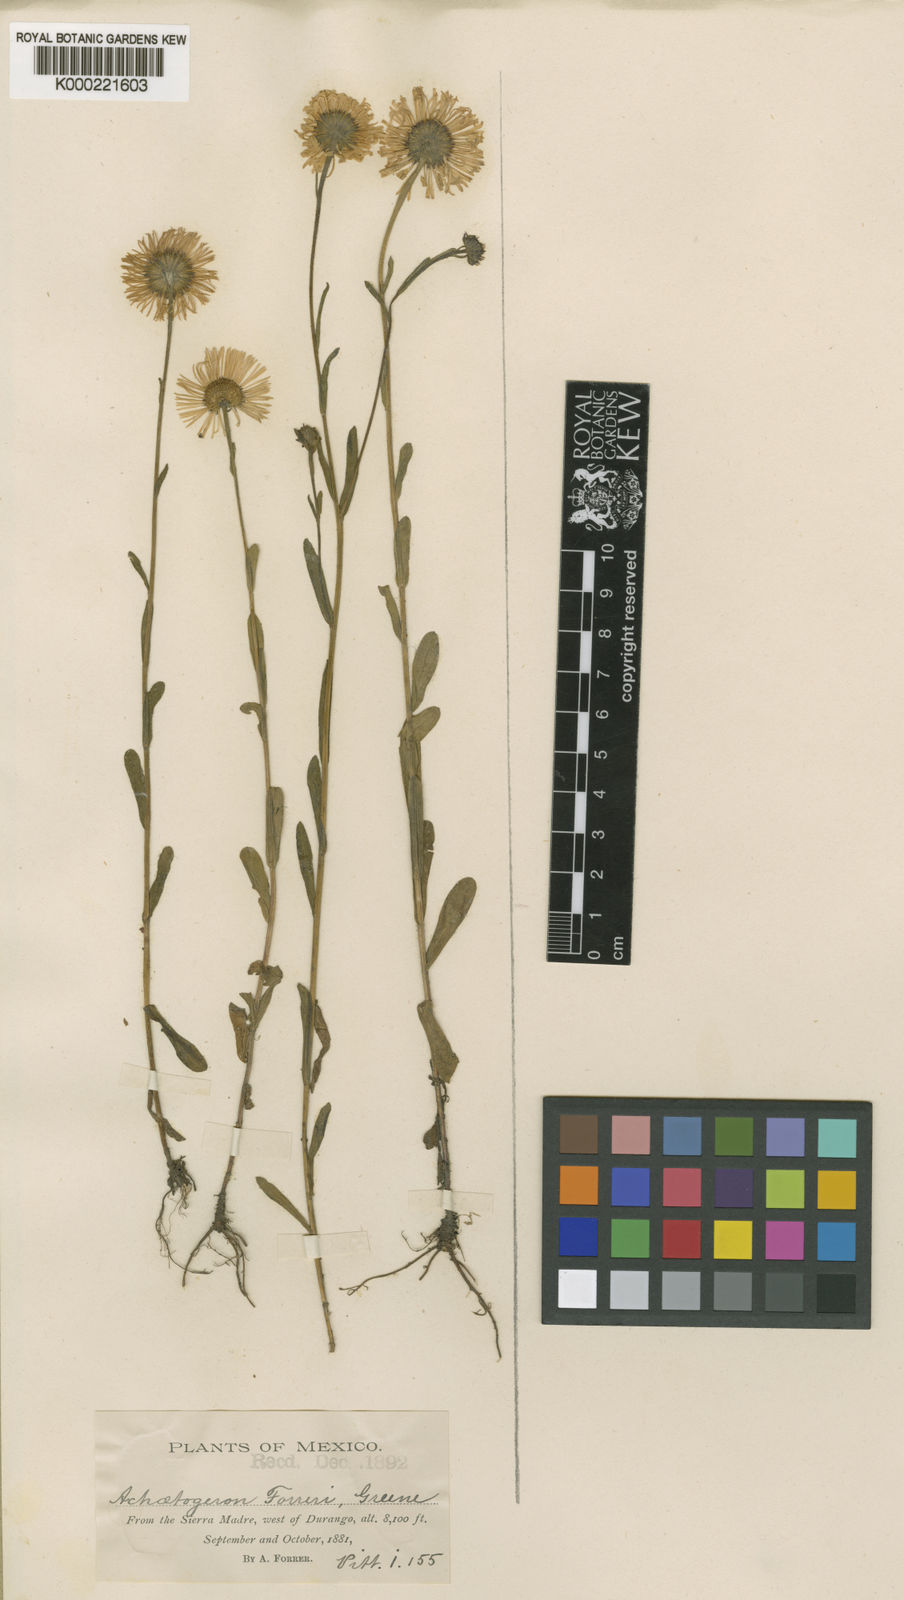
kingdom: Plantae
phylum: Tracheophyta
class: Magnoliopsida
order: Asterales
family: Asteraceae
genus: Erigeron
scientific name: Erigeron forreri
